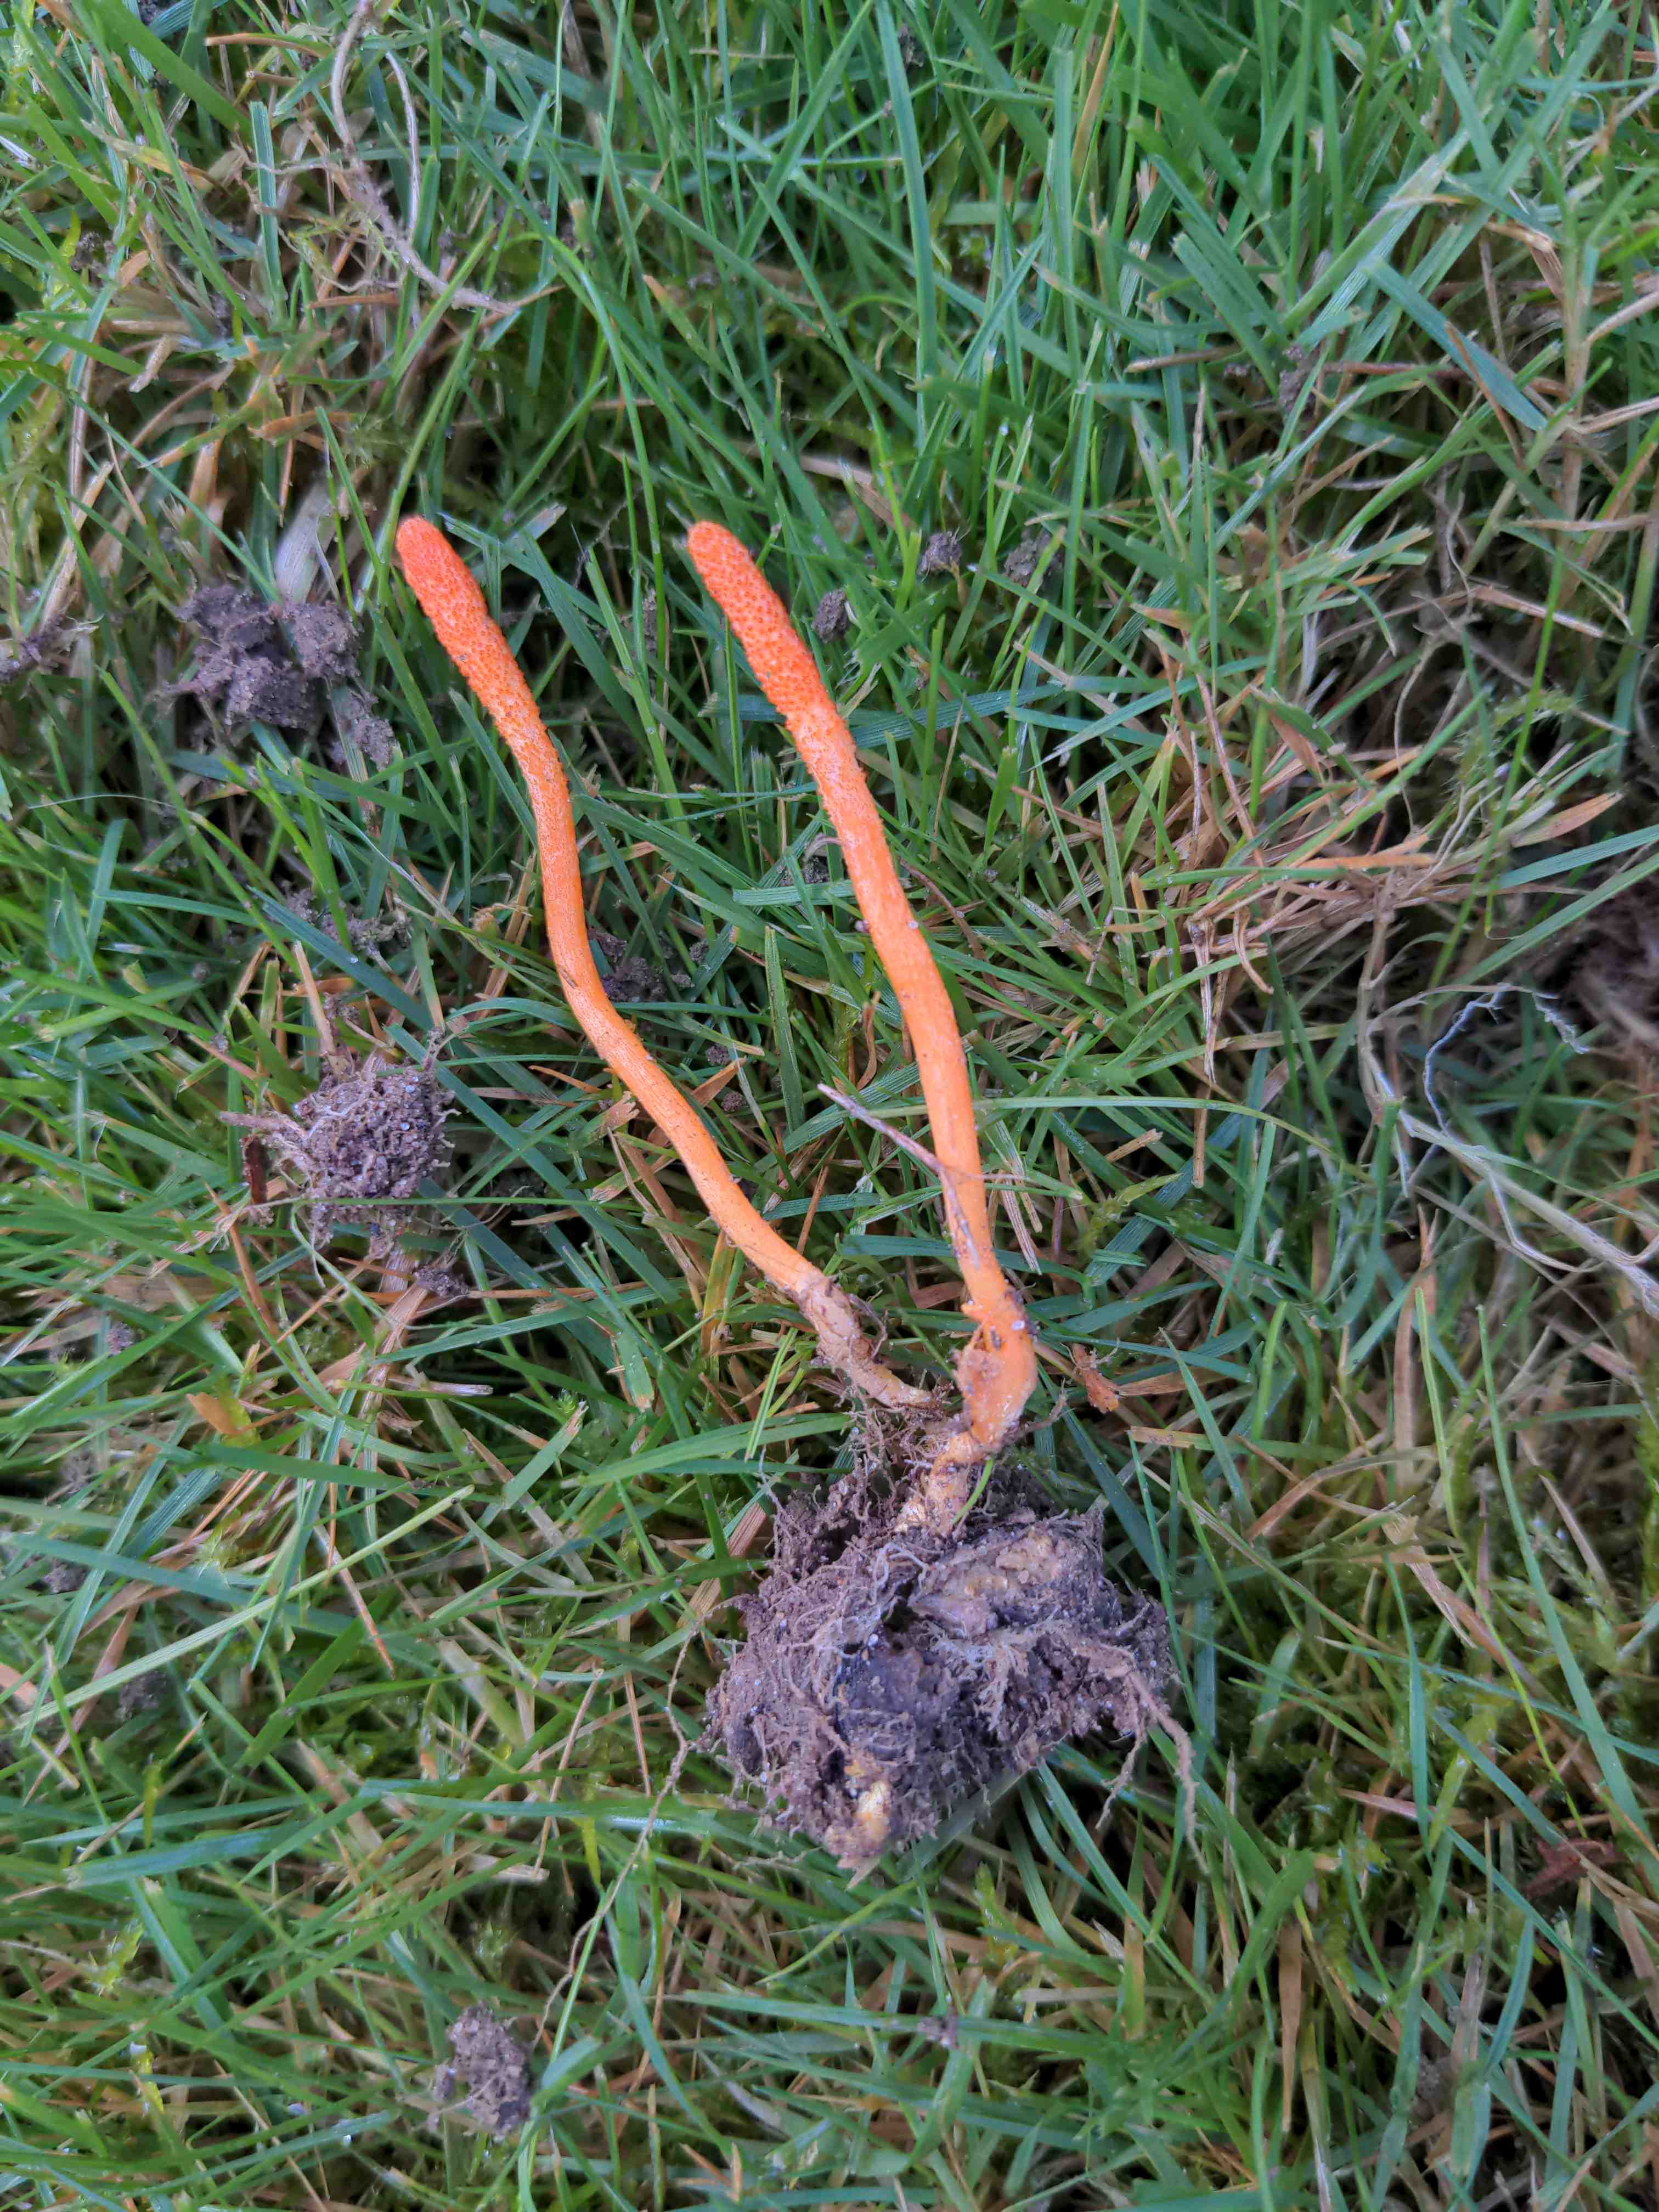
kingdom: Fungi
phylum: Ascomycota
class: Sordariomycetes
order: Hypocreales
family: Cordycipitaceae
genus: Cordyceps
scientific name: Cordyceps militaris
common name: puppe-snyltekølle
